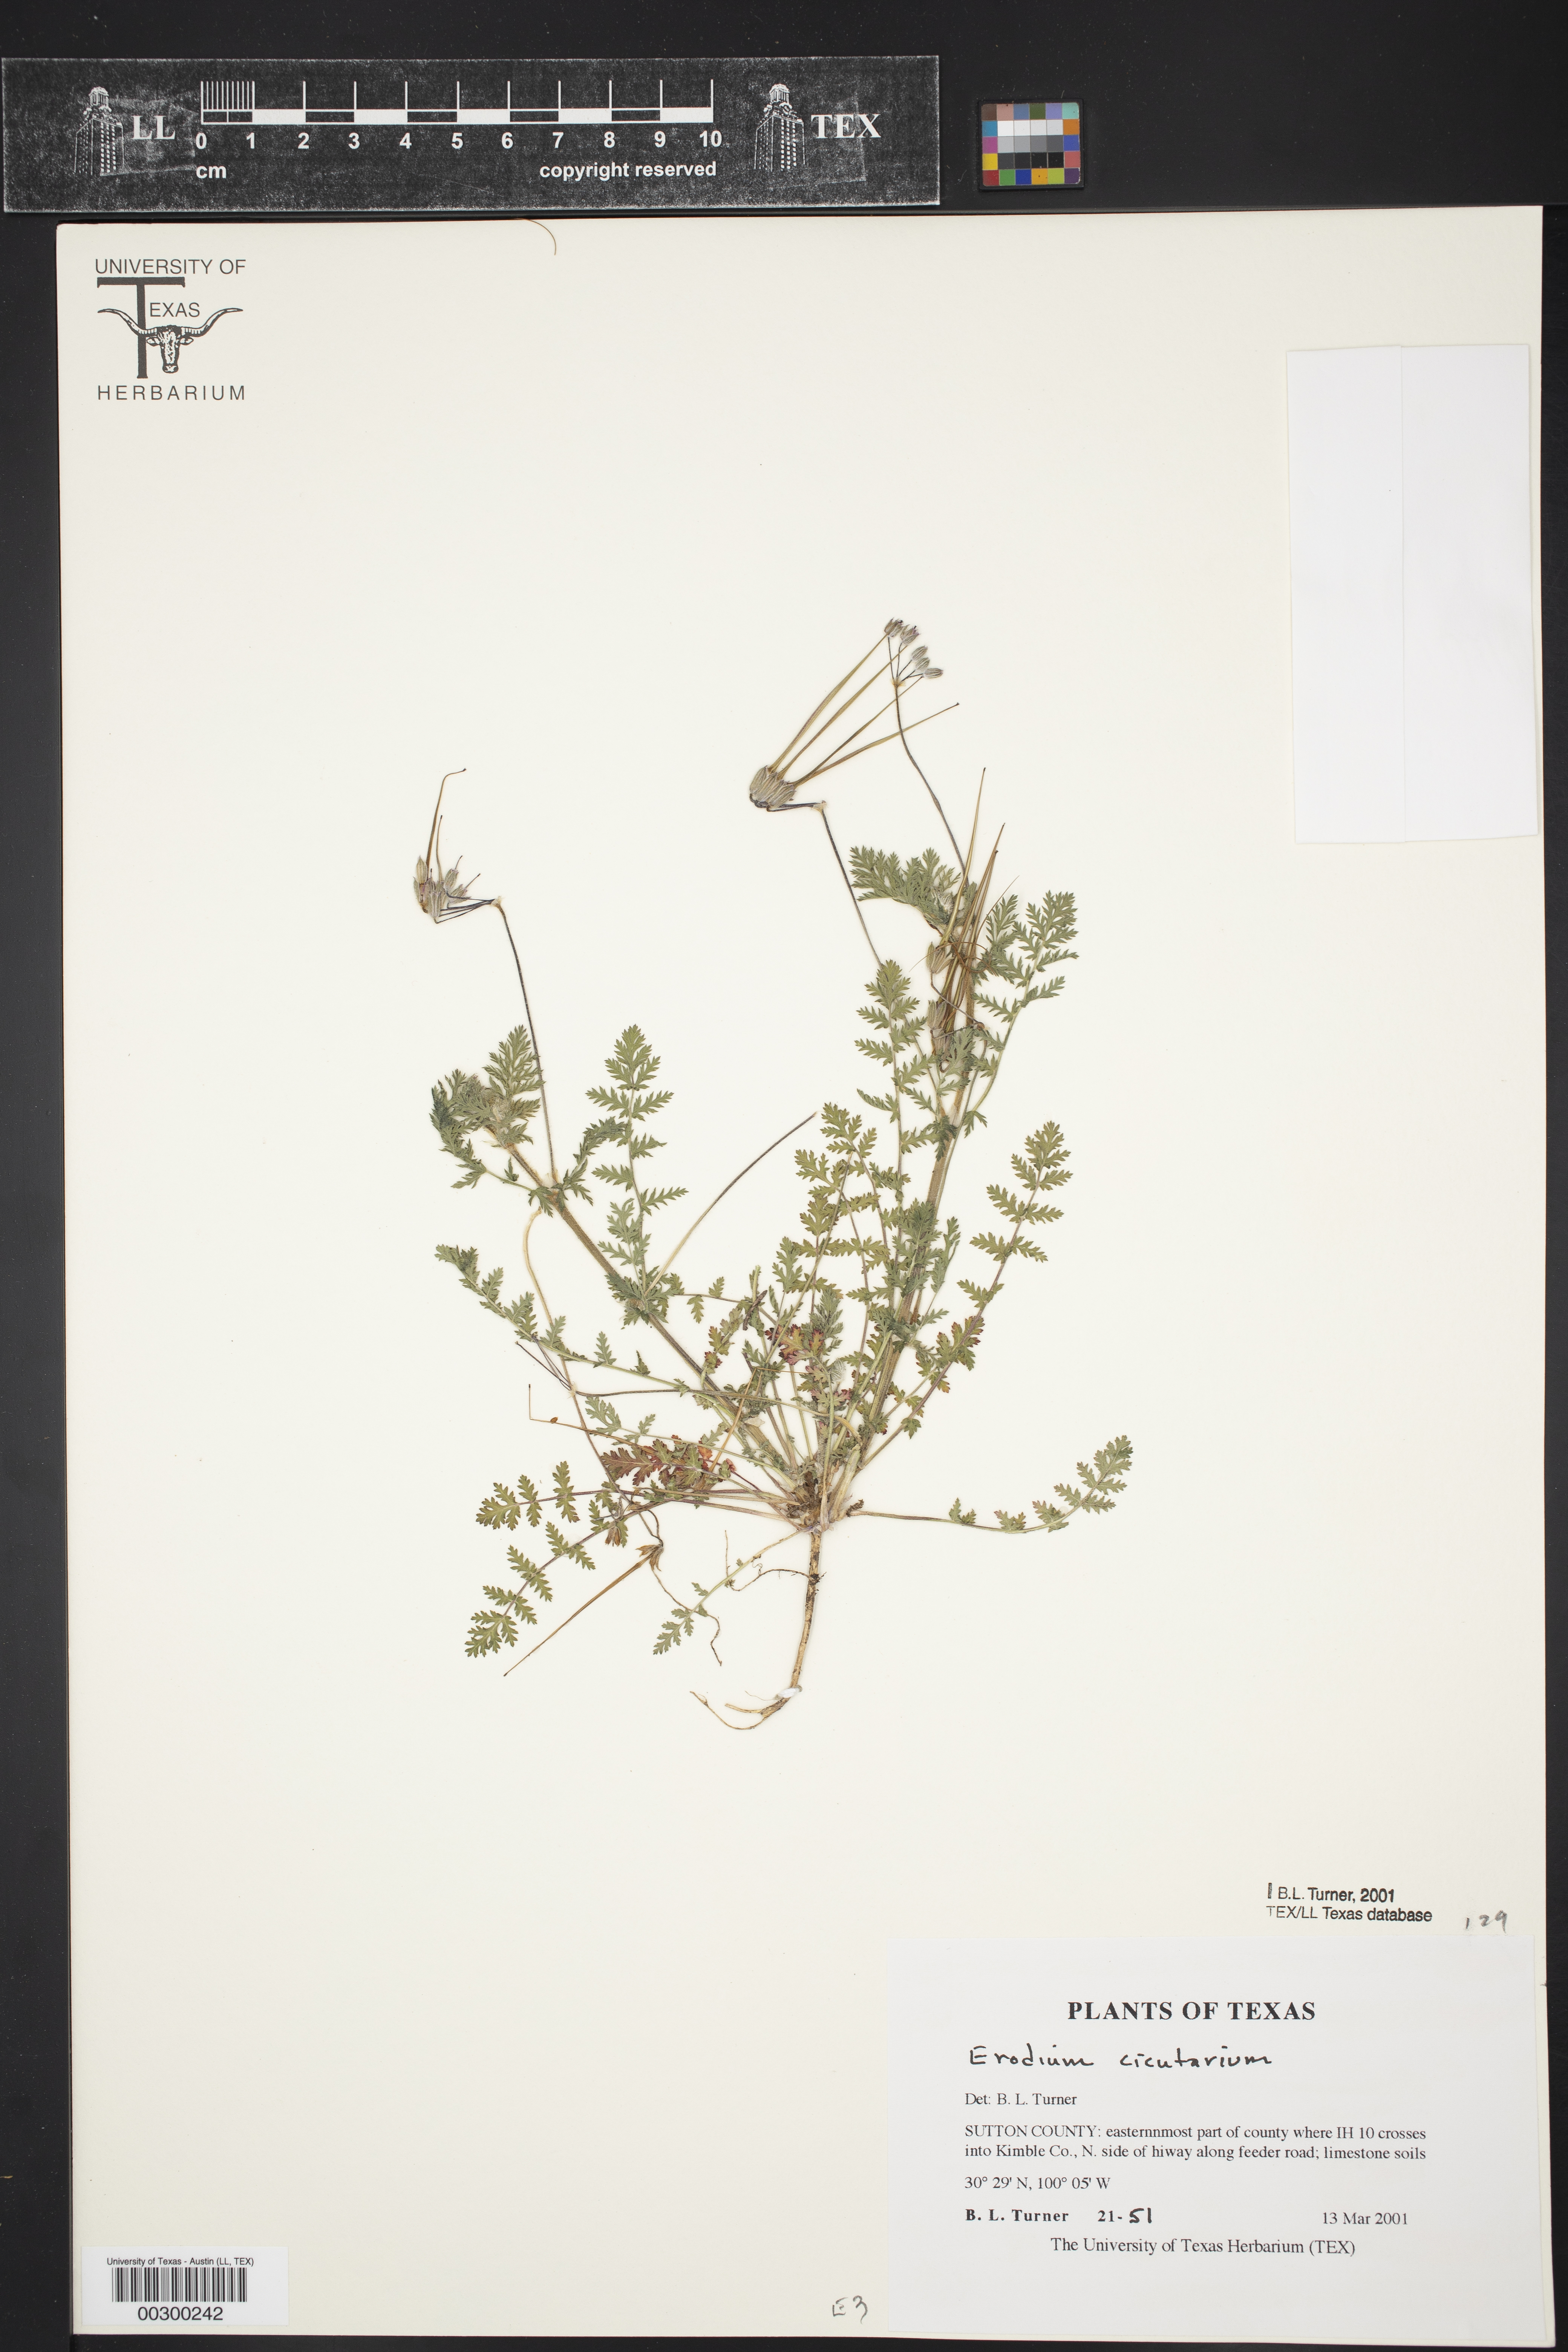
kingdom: Plantae
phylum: Tracheophyta
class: Magnoliopsida
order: Geraniales
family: Geraniaceae
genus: Erodium
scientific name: Erodium cicutarium
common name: Common stork's-bill
